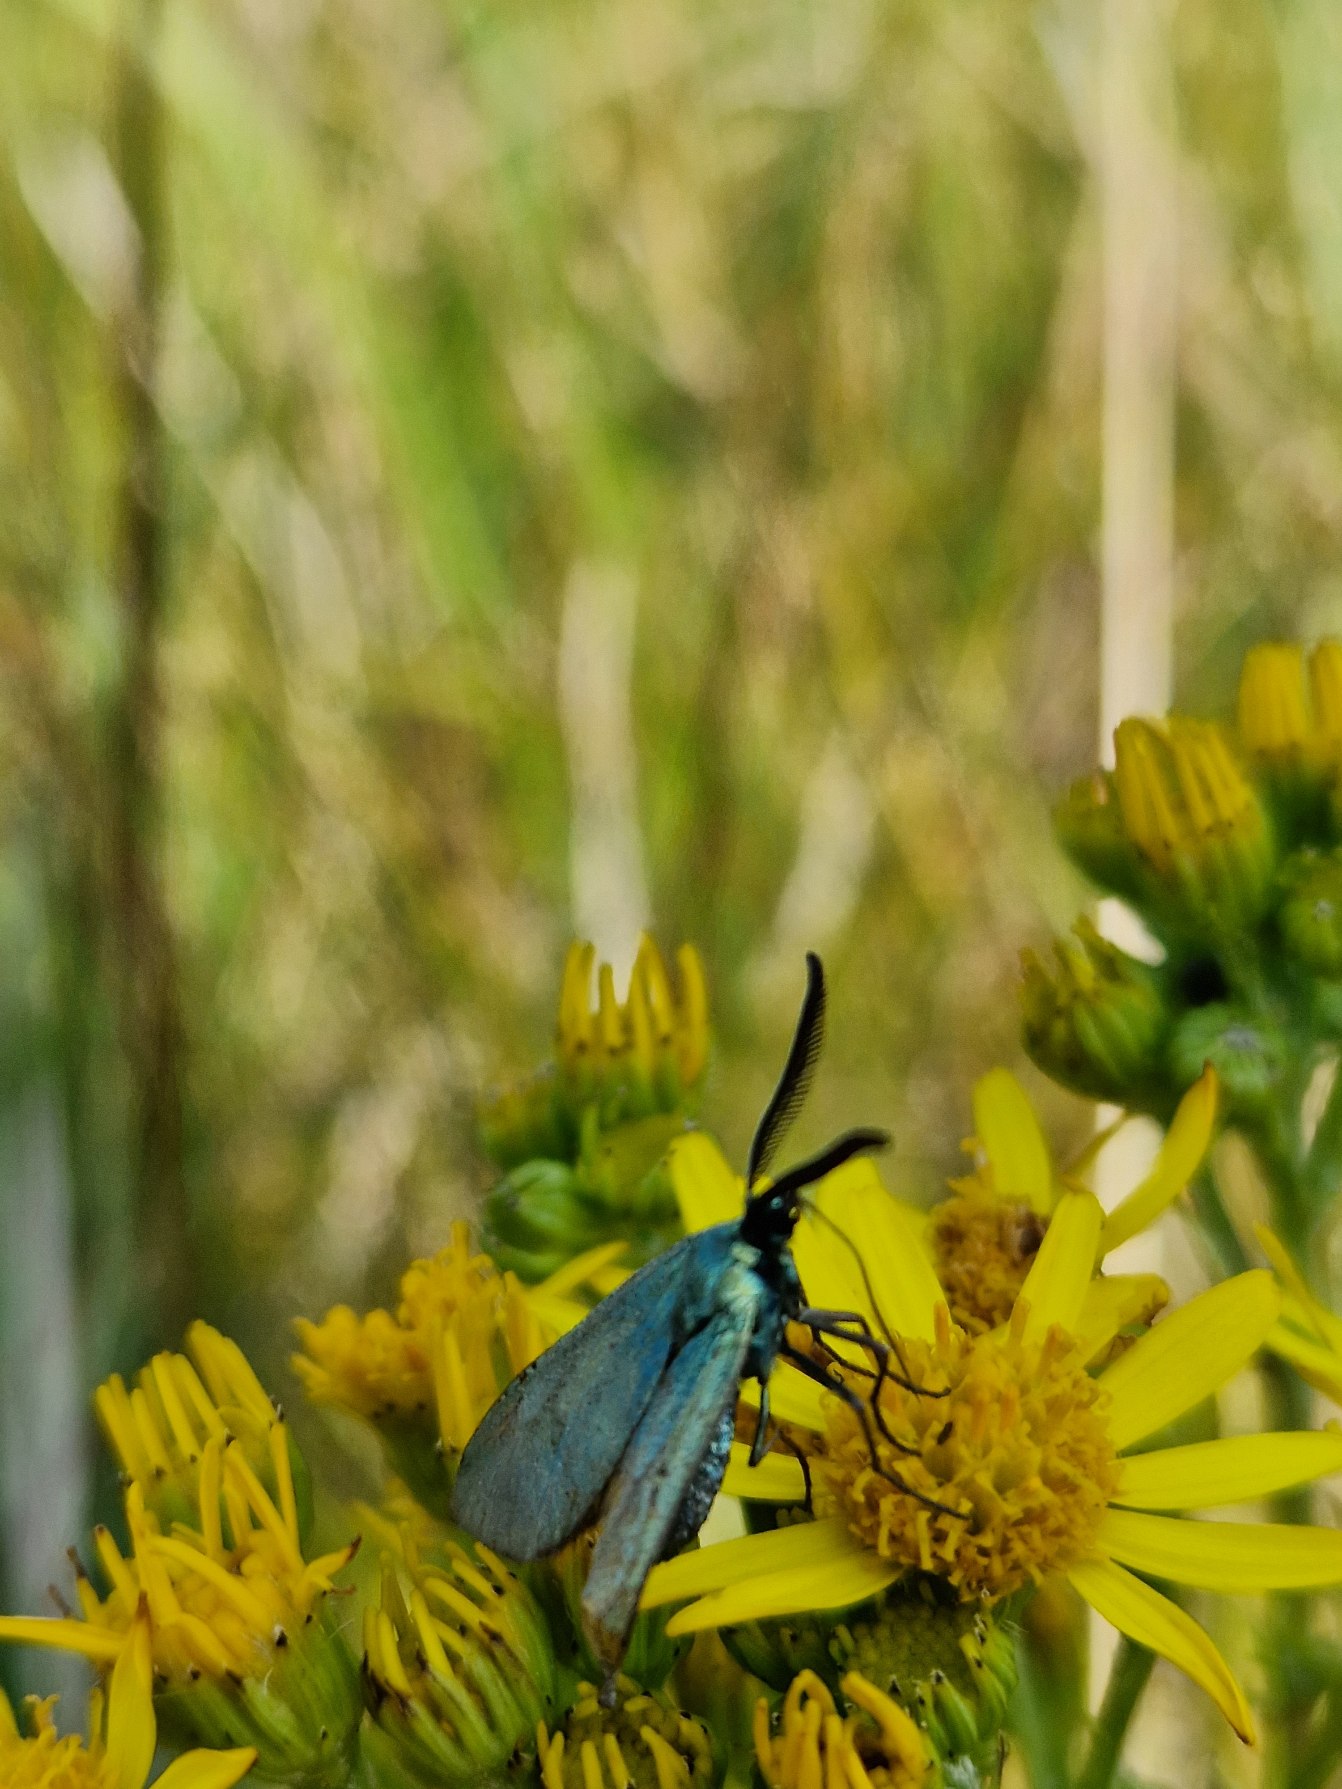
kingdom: Animalia
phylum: Arthropoda
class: Insecta
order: Lepidoptera
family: Zygaenidae
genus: Adscita
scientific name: Adscita statices
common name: Metalvinge
